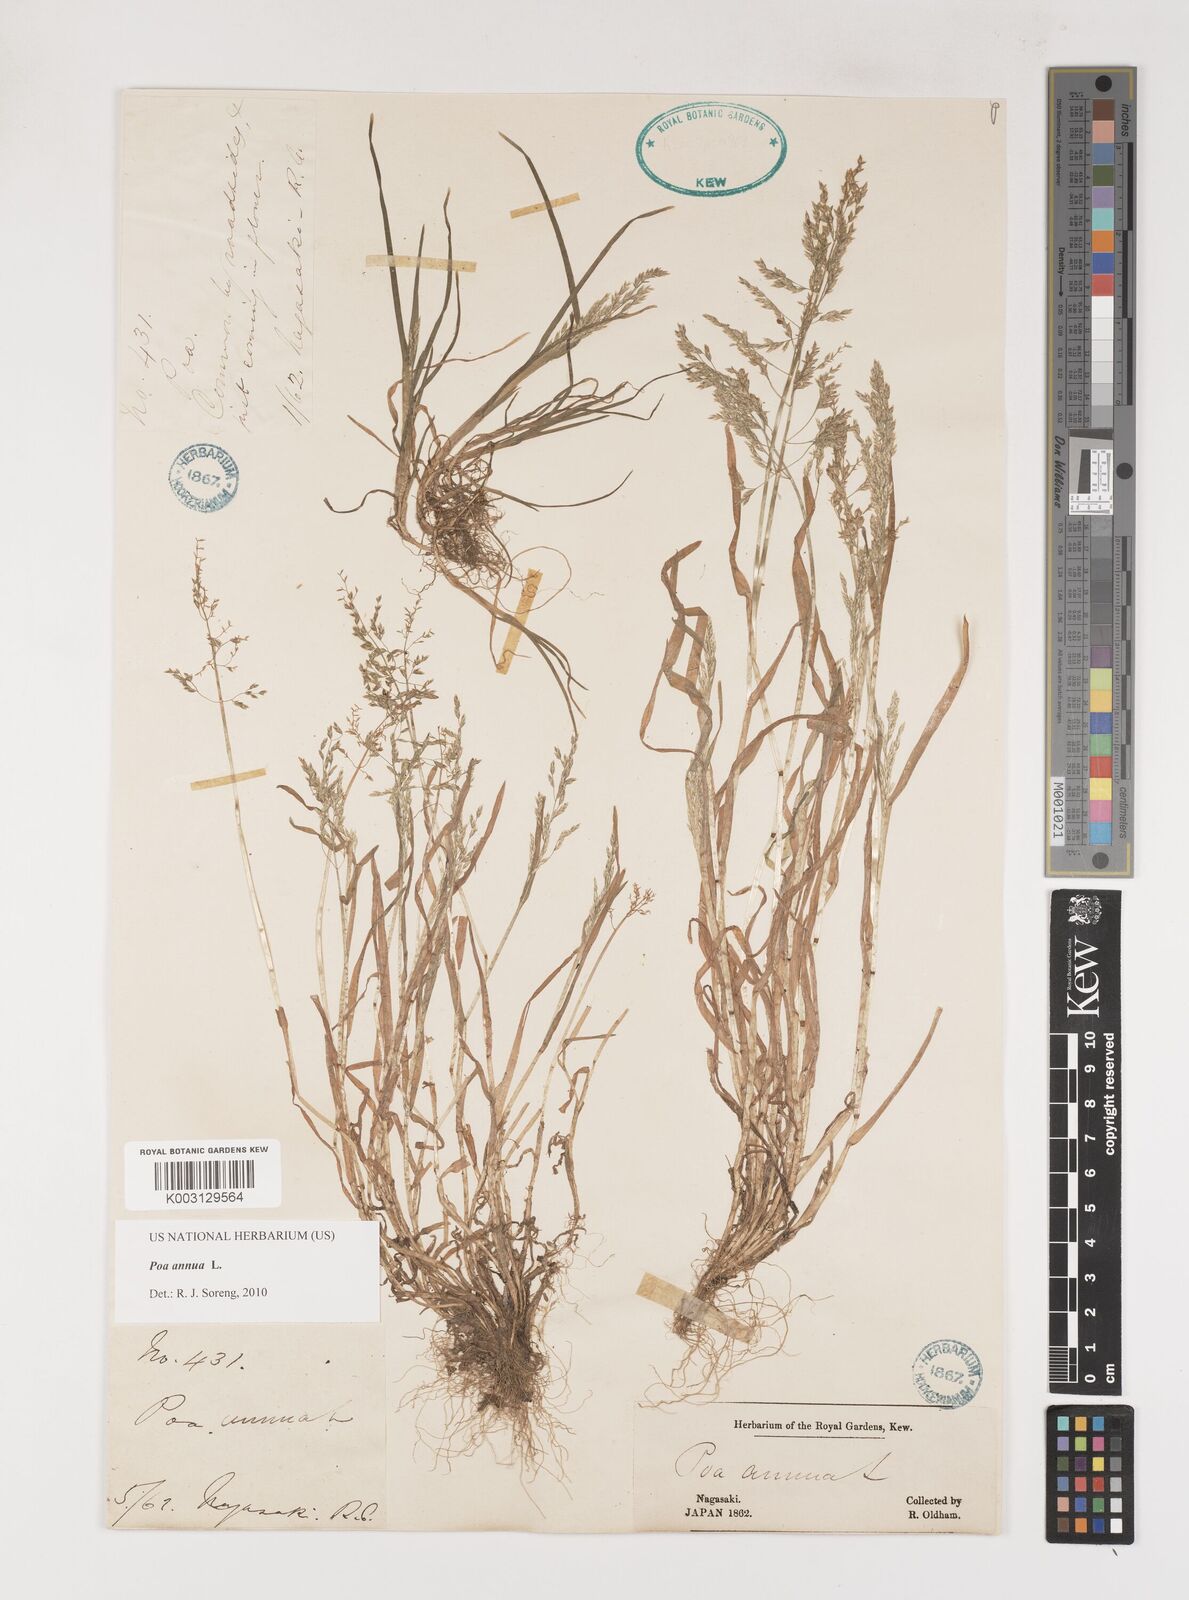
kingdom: Plantae
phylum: Tracheophyta
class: Liliopsida
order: Poales
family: Poaceae
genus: Poa
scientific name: Poa annua
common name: Annual bluegrass
